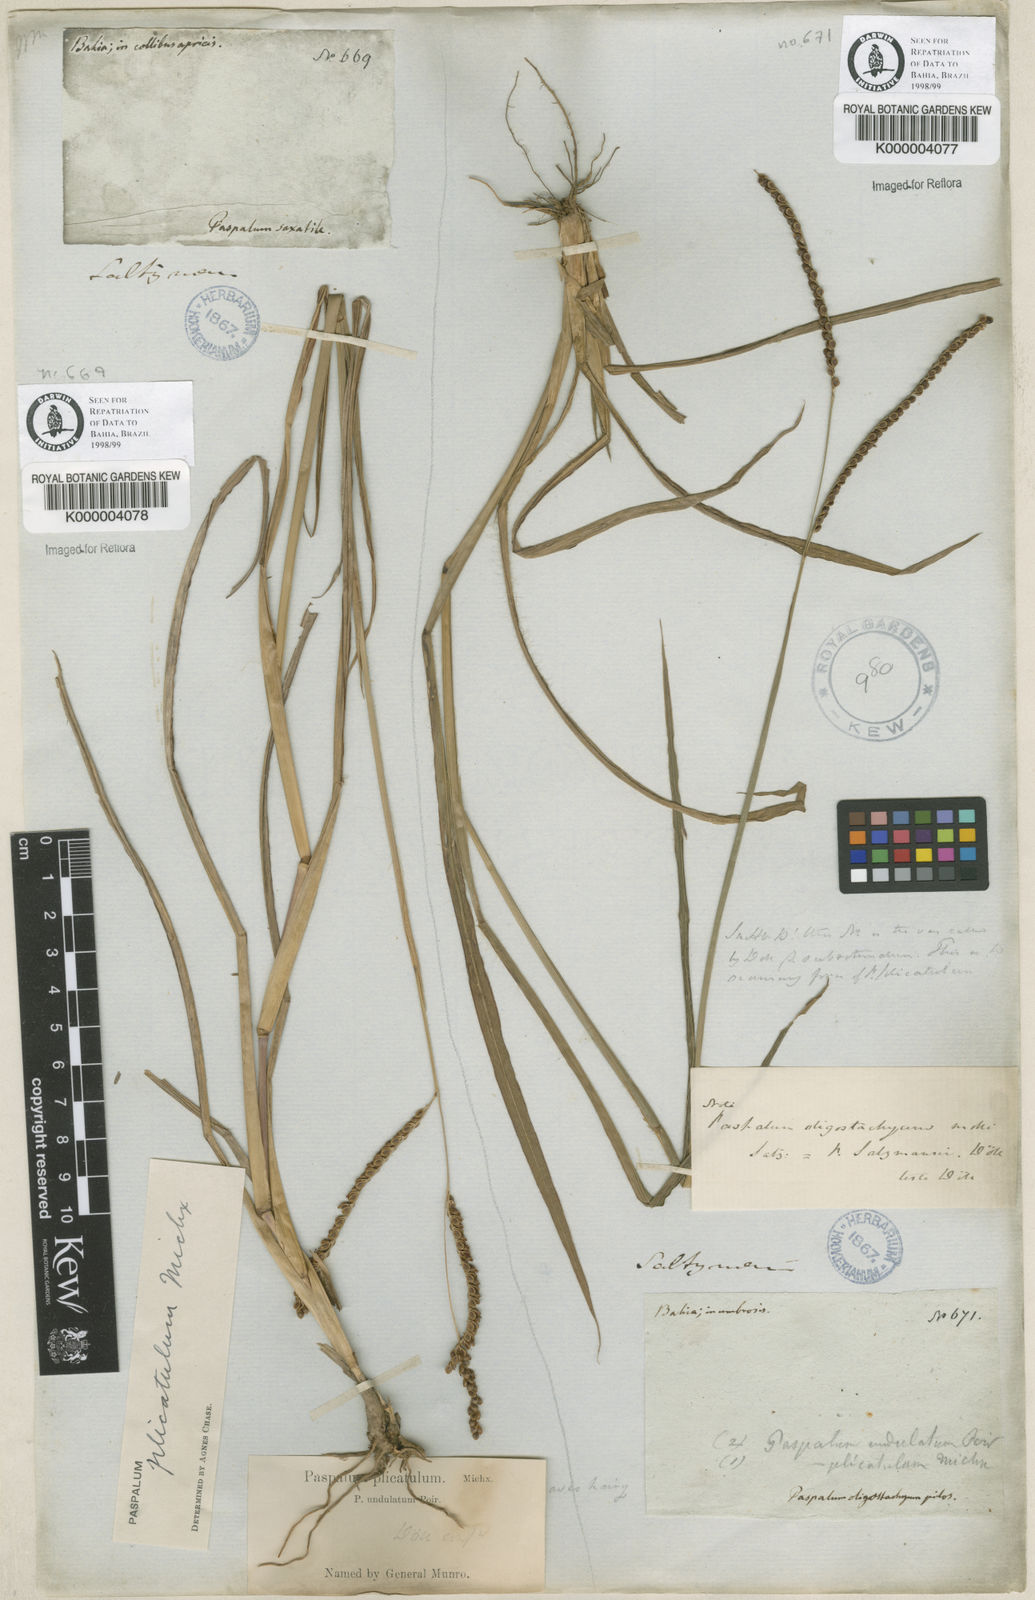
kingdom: Plantae
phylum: Tracheophyta
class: Liliopsida
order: Poales
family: Poaceae
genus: Paspalum
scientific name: Paspalum plicatulum
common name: Top paspalum
